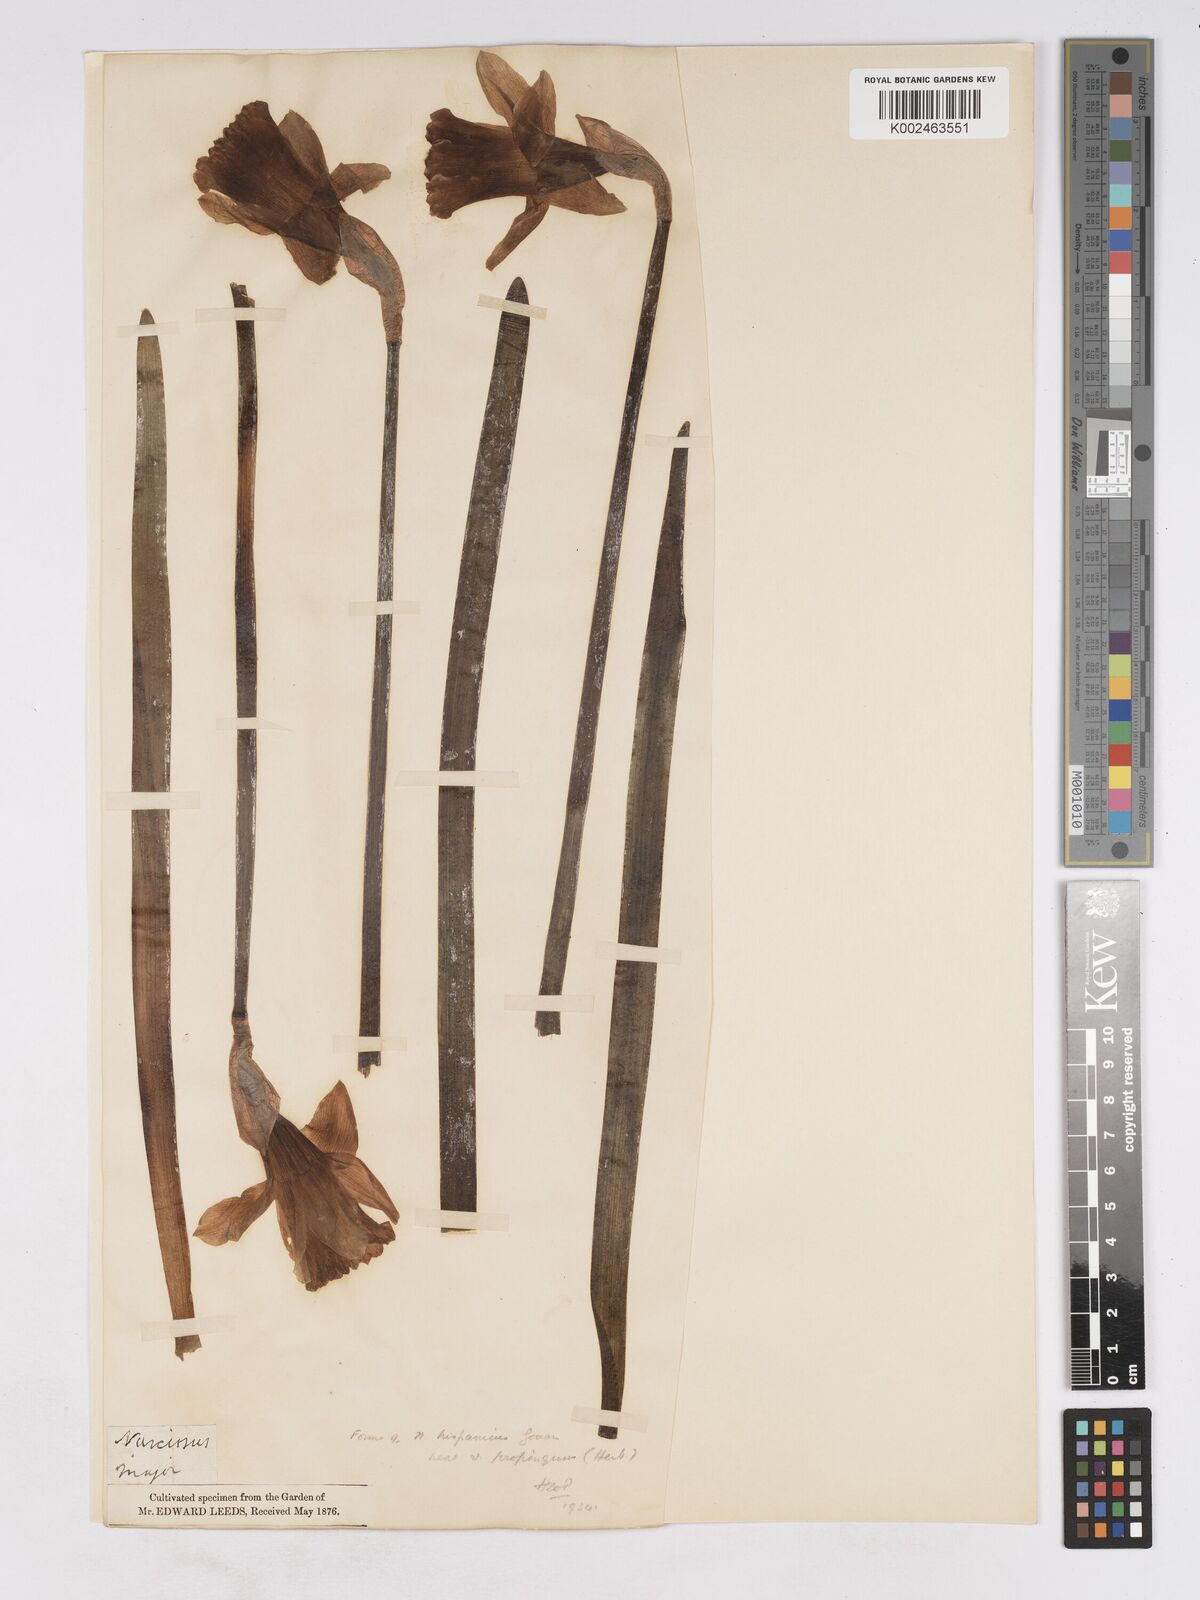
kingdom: Plantae
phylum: Tracheophyta
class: Liliopsida
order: Asparagales
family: Amaryllidaceae
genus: Narcissus
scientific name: Narcissus hispanicus
